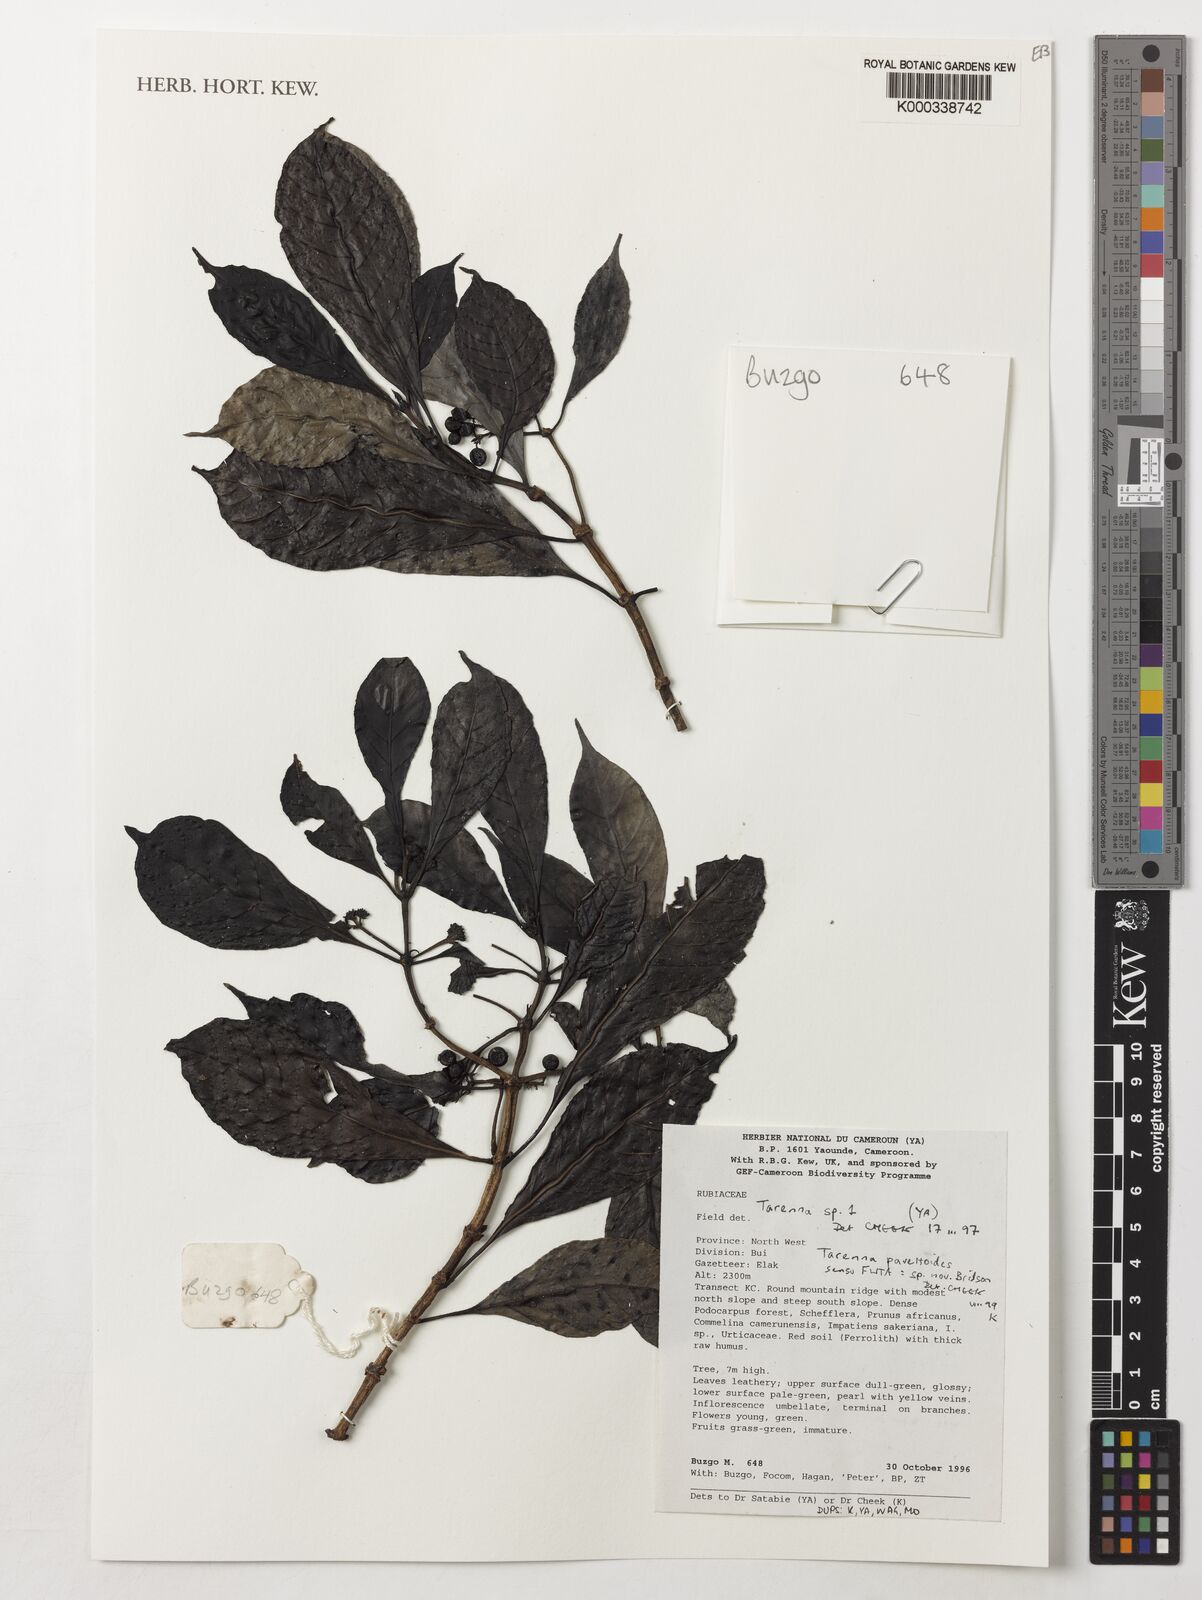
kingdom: Plantae
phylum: Tracheophyta
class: Magnoliopsida
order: Gentianales
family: Rubiaceae
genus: Tarenna
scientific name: Tarenna pavettoides
